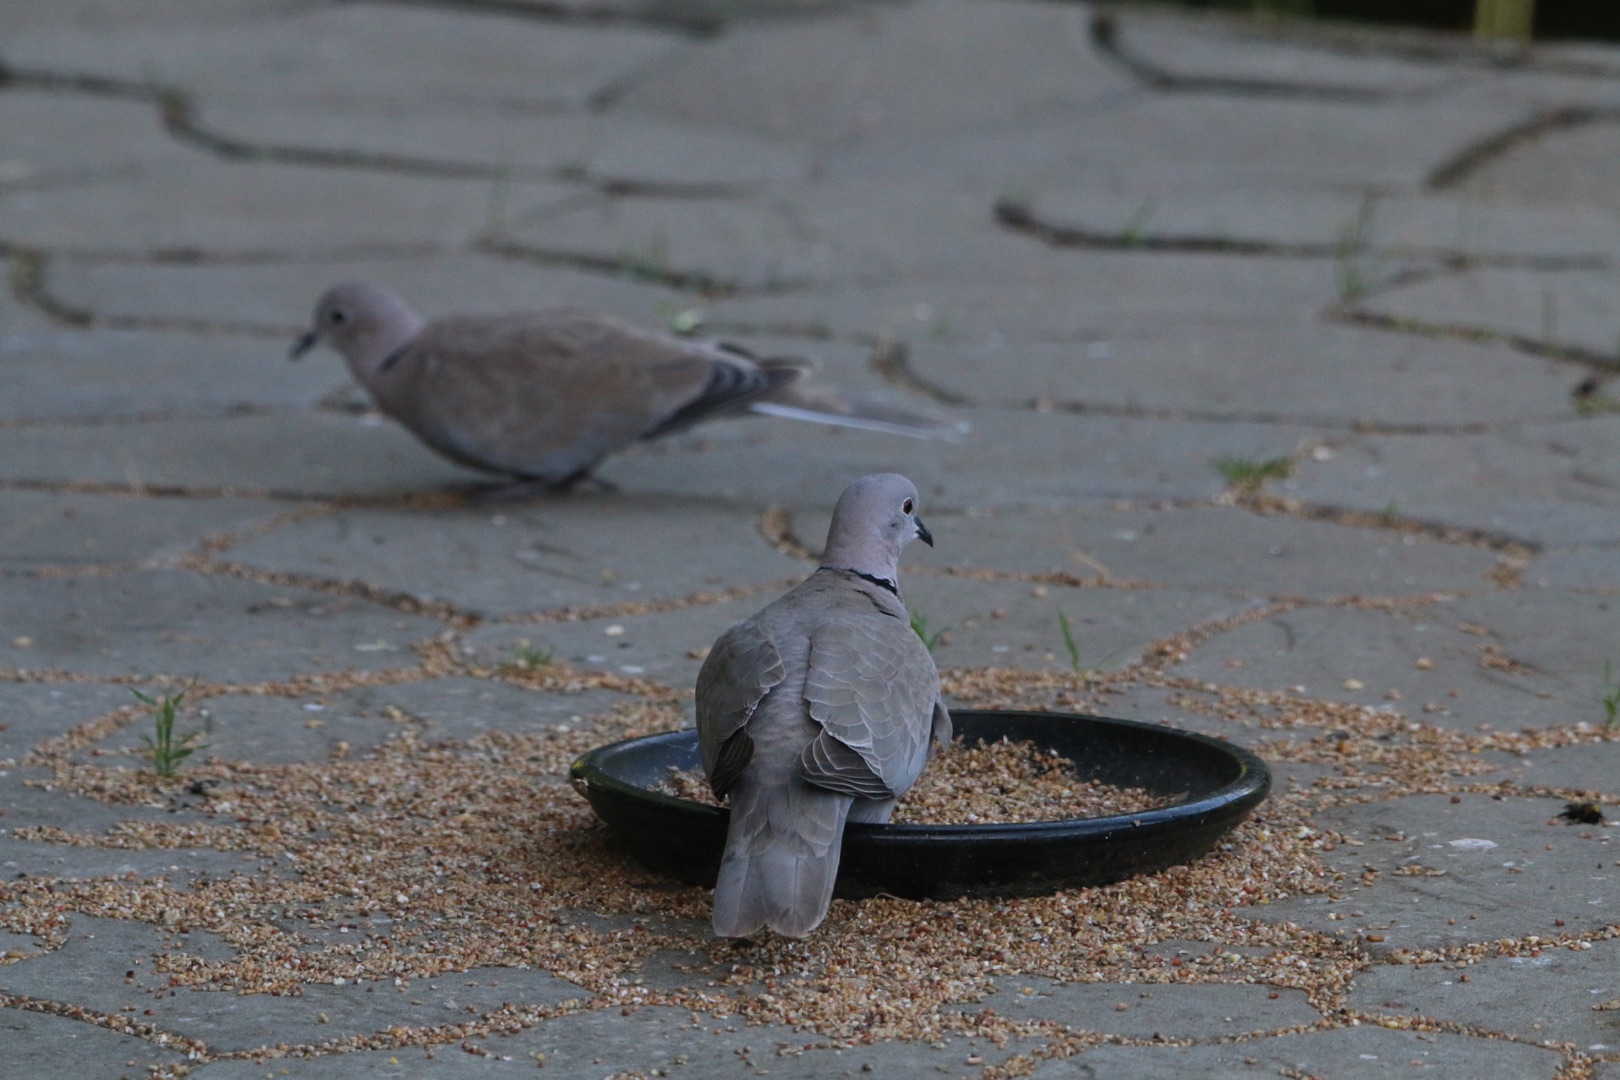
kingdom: Animalia
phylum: Chordata
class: Aves
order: Columbiformes
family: Columbidae
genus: Streptopelia
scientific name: Streptopelia decaocto
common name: Tyrkerdue
